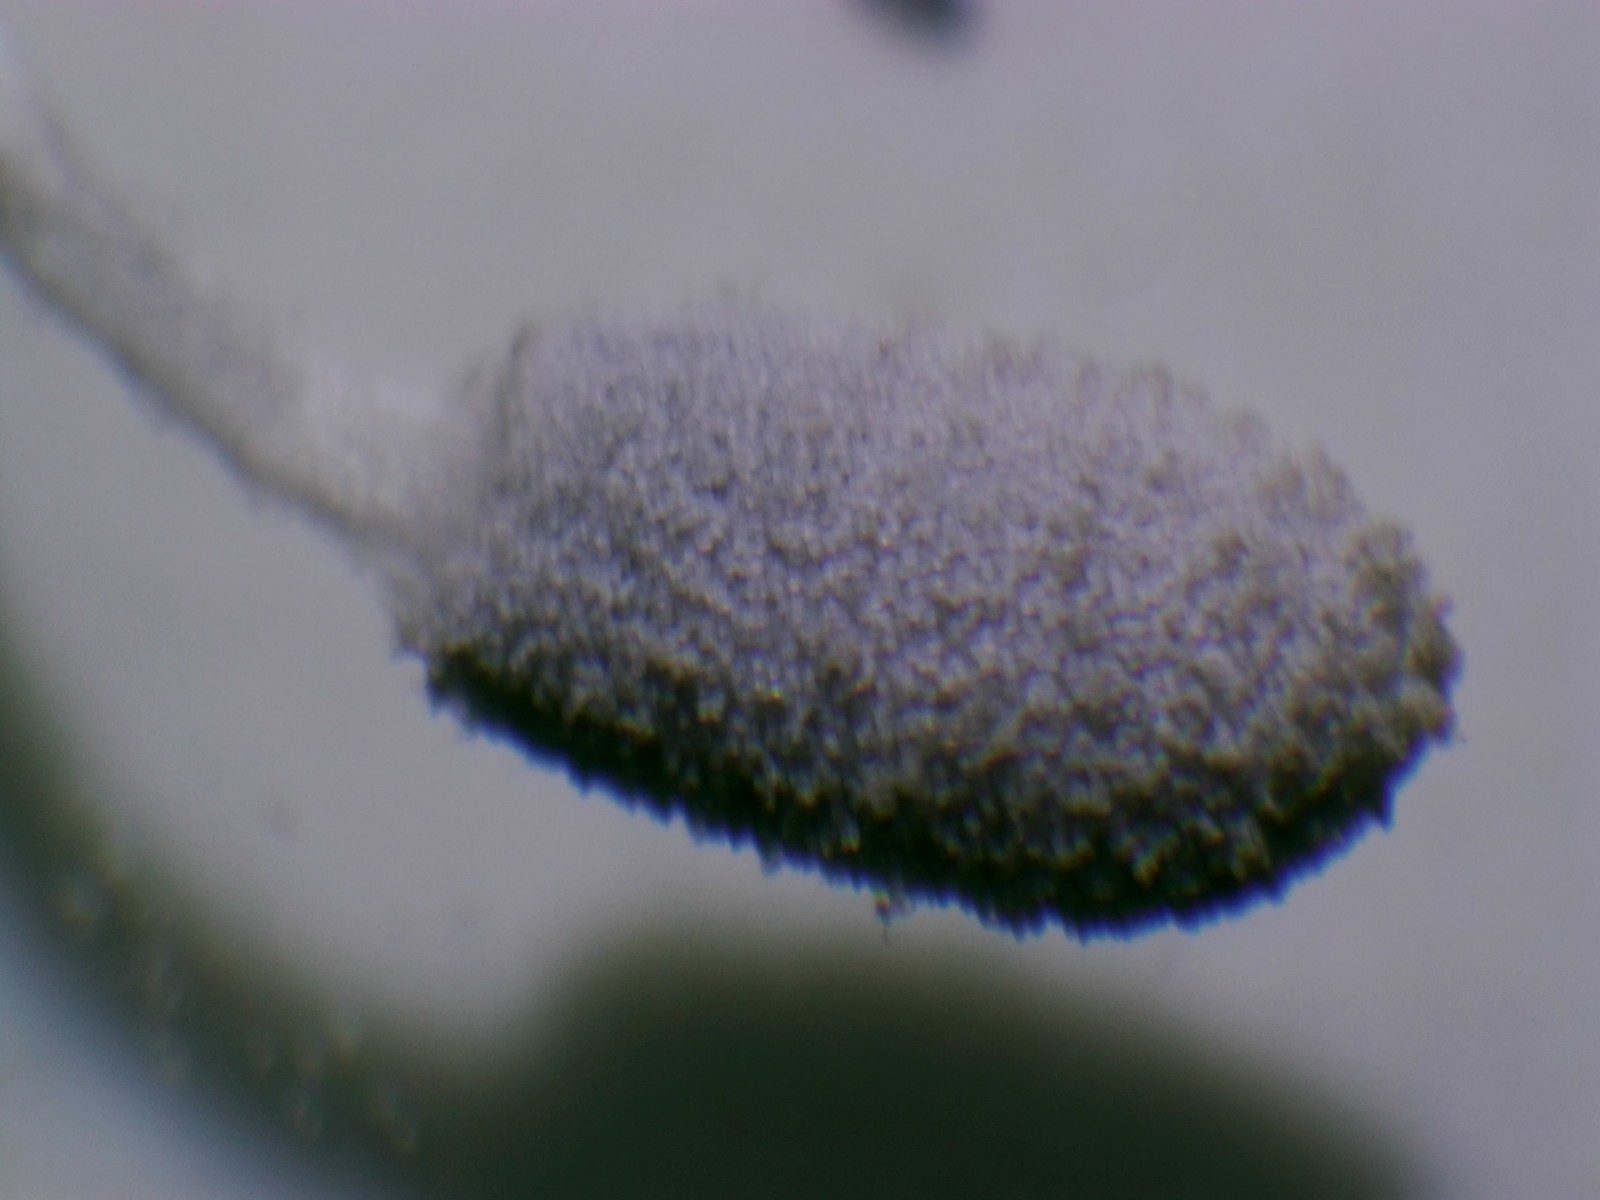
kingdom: Fungi
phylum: Basidiomycota
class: Agaricomycetes
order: Agaricales
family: Psathyrellaceae
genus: Coprinopsis
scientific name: Coprinopsis
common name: blækhat
